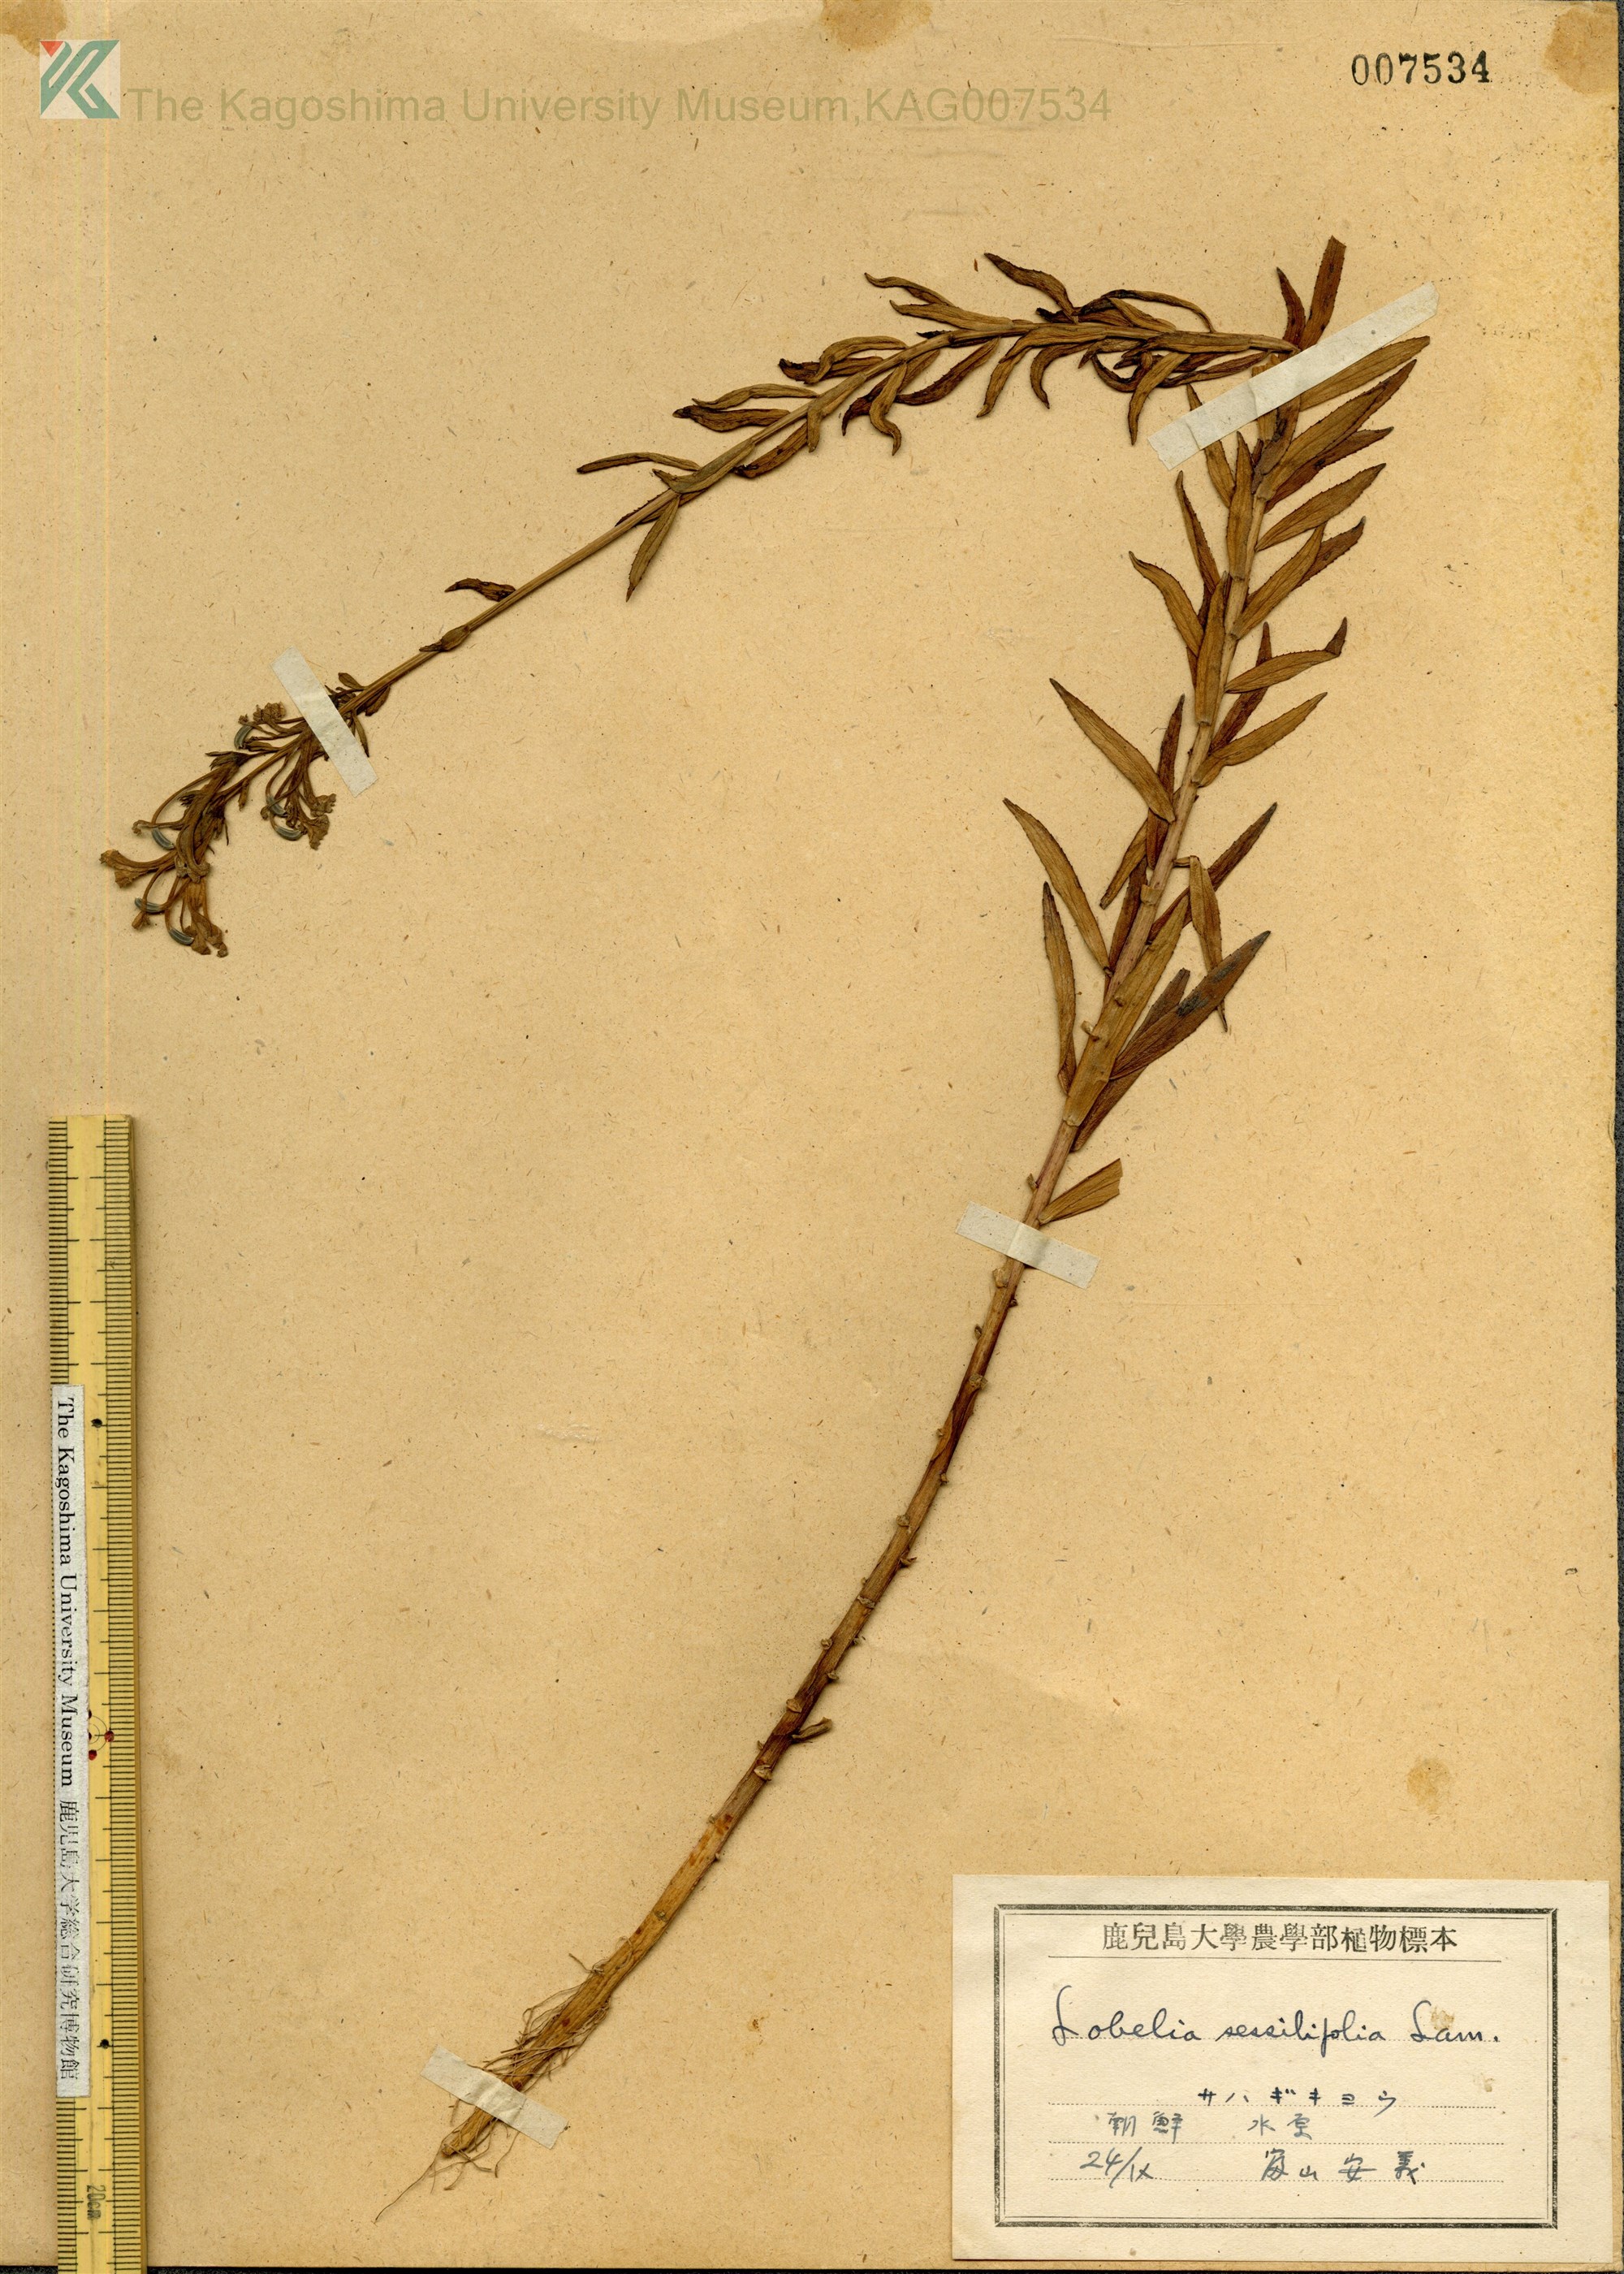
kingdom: Plantae
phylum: Tracheophyta
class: Magnoliopsida
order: Asterales
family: Campanulaceae
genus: Lobelia
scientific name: Lobelia sessilifolia
